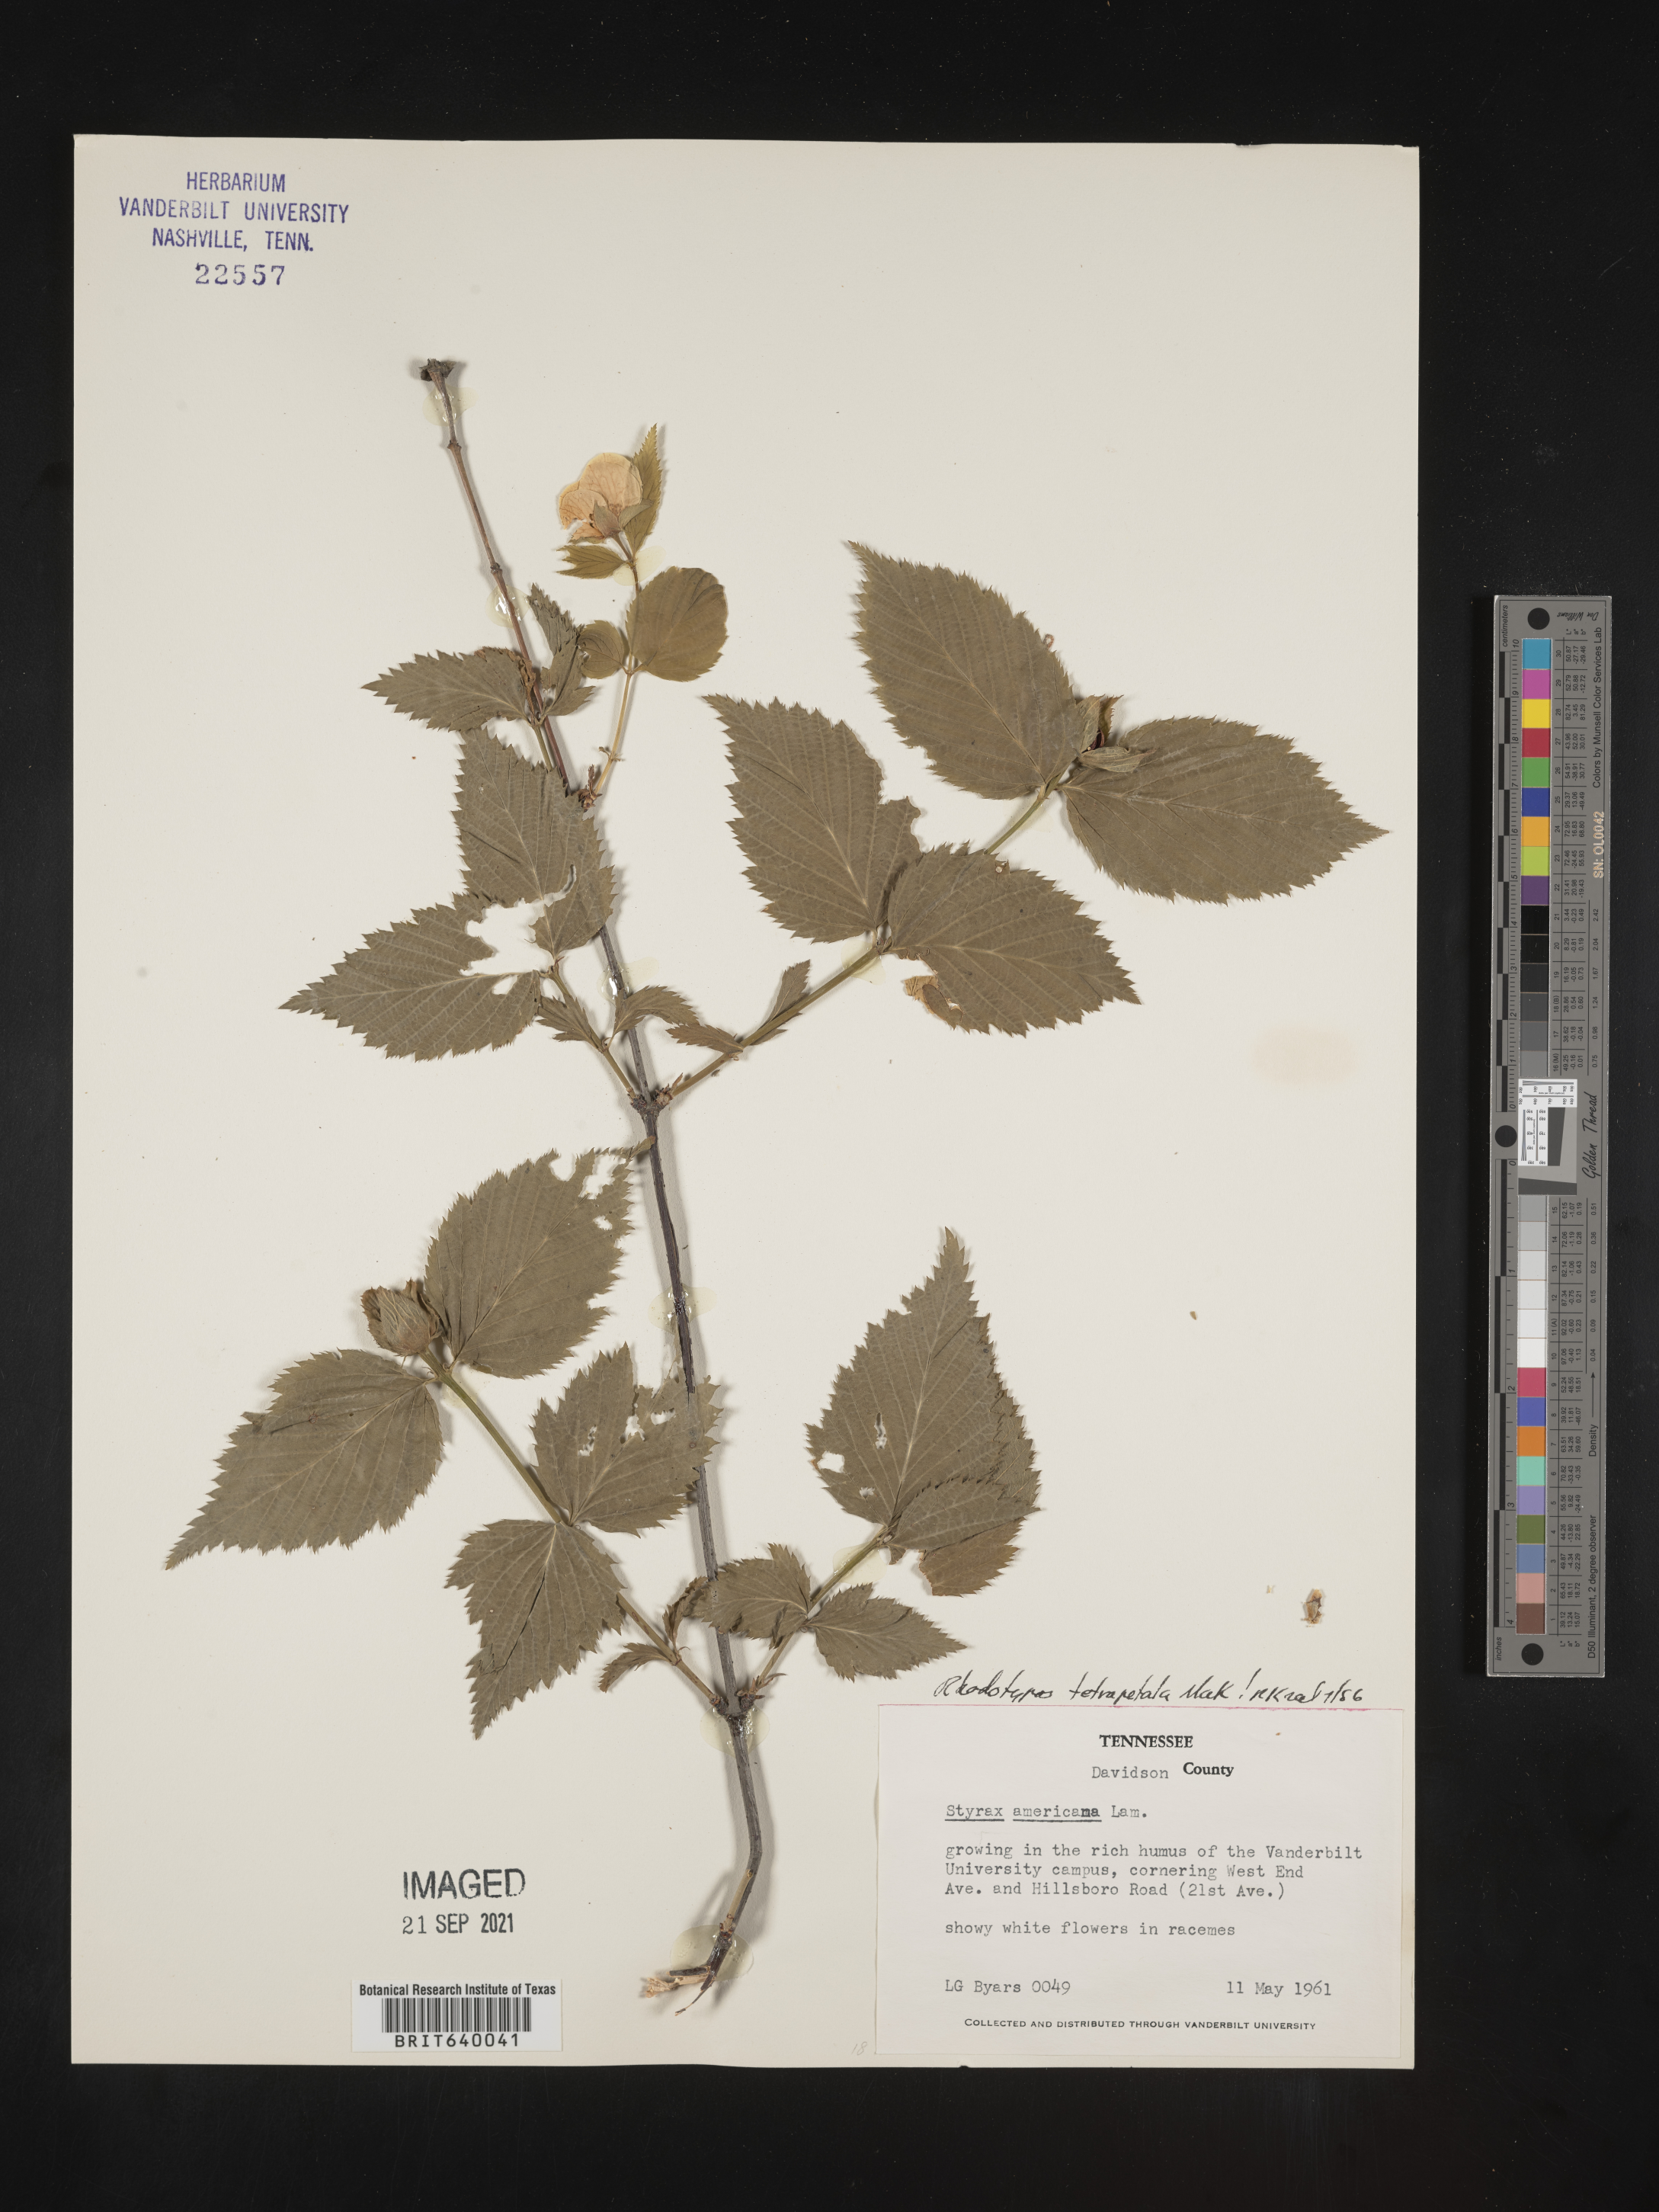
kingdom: Plantae
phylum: Tracheophyta
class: Magnoliopsida
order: Rosales
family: Rosaceae
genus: Rhodotypos
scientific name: Rhodotypos
